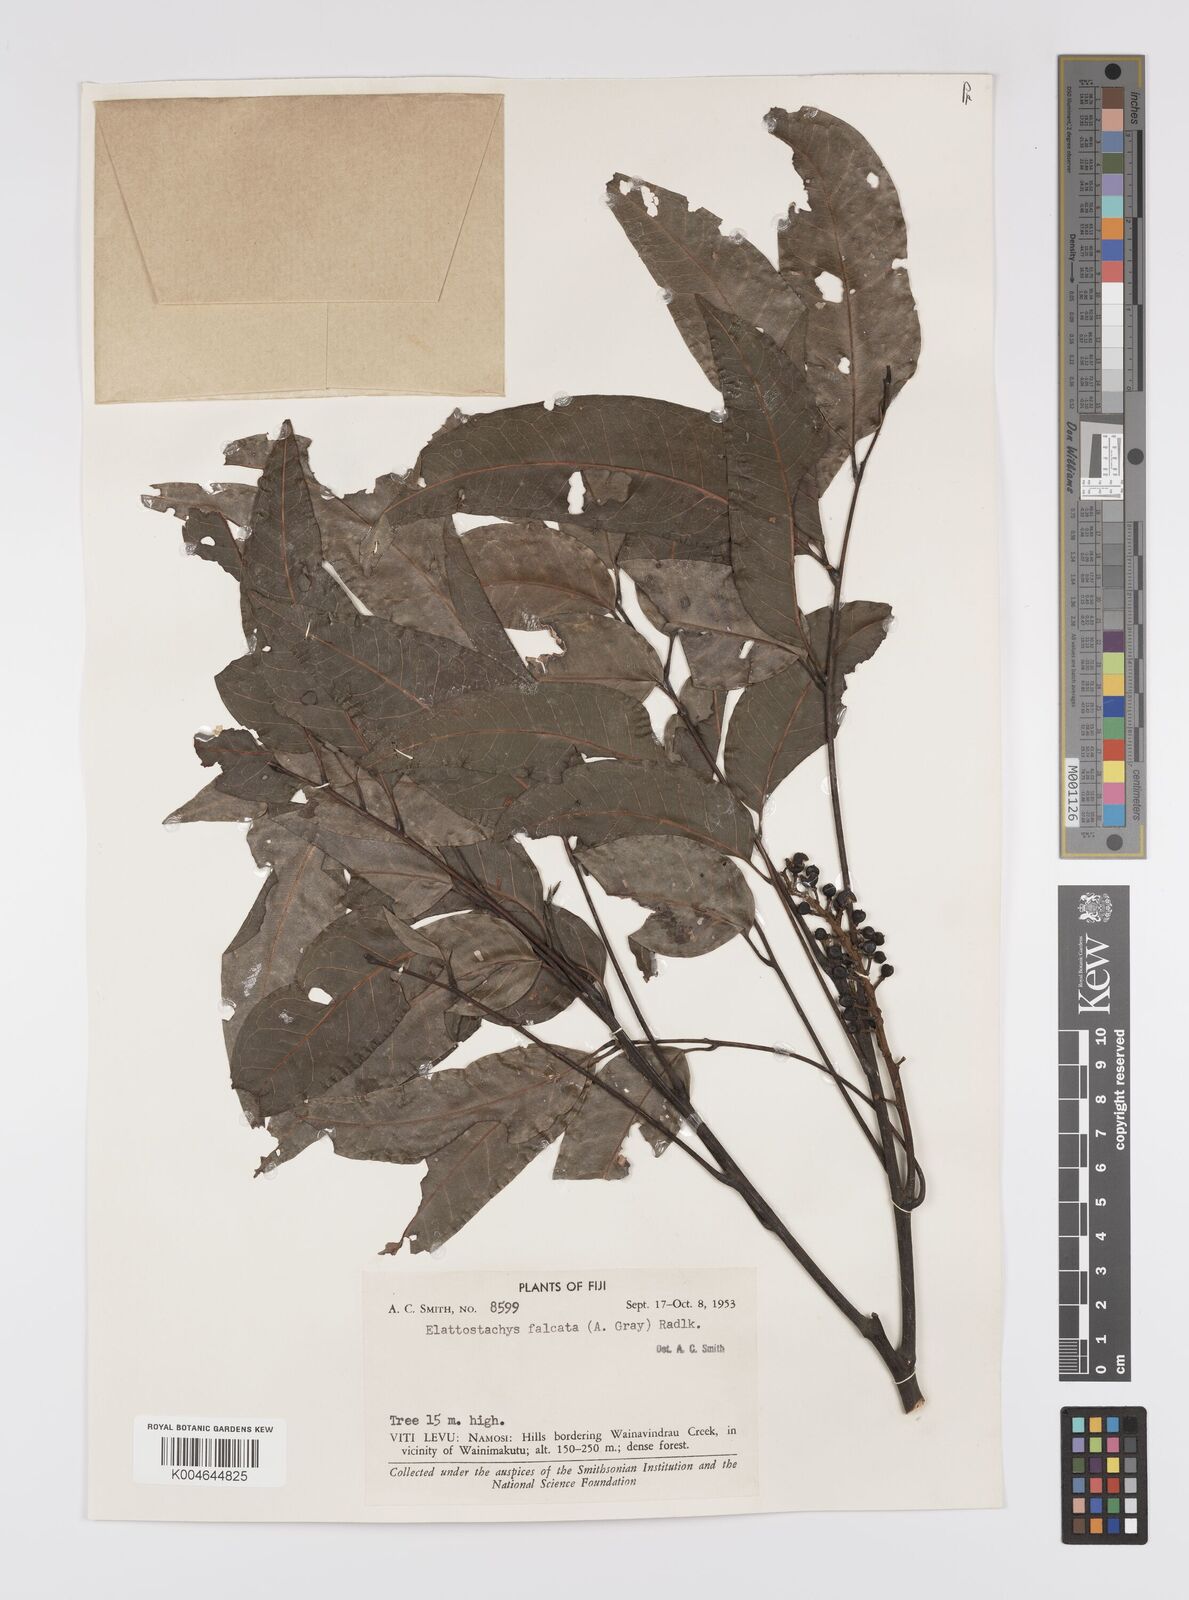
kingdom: Plantae
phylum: Tracheophyta
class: Magnoliopsida
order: Sapindales
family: Sapindaceae
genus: Elattostachys
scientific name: Elattostachys apetala
